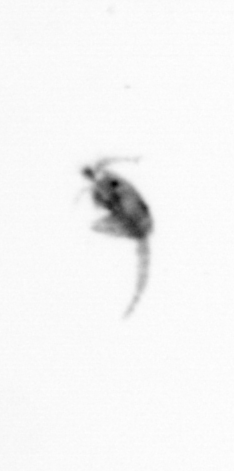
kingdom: Animalia
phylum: Arthropoda
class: Copepoda
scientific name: Copepoda
